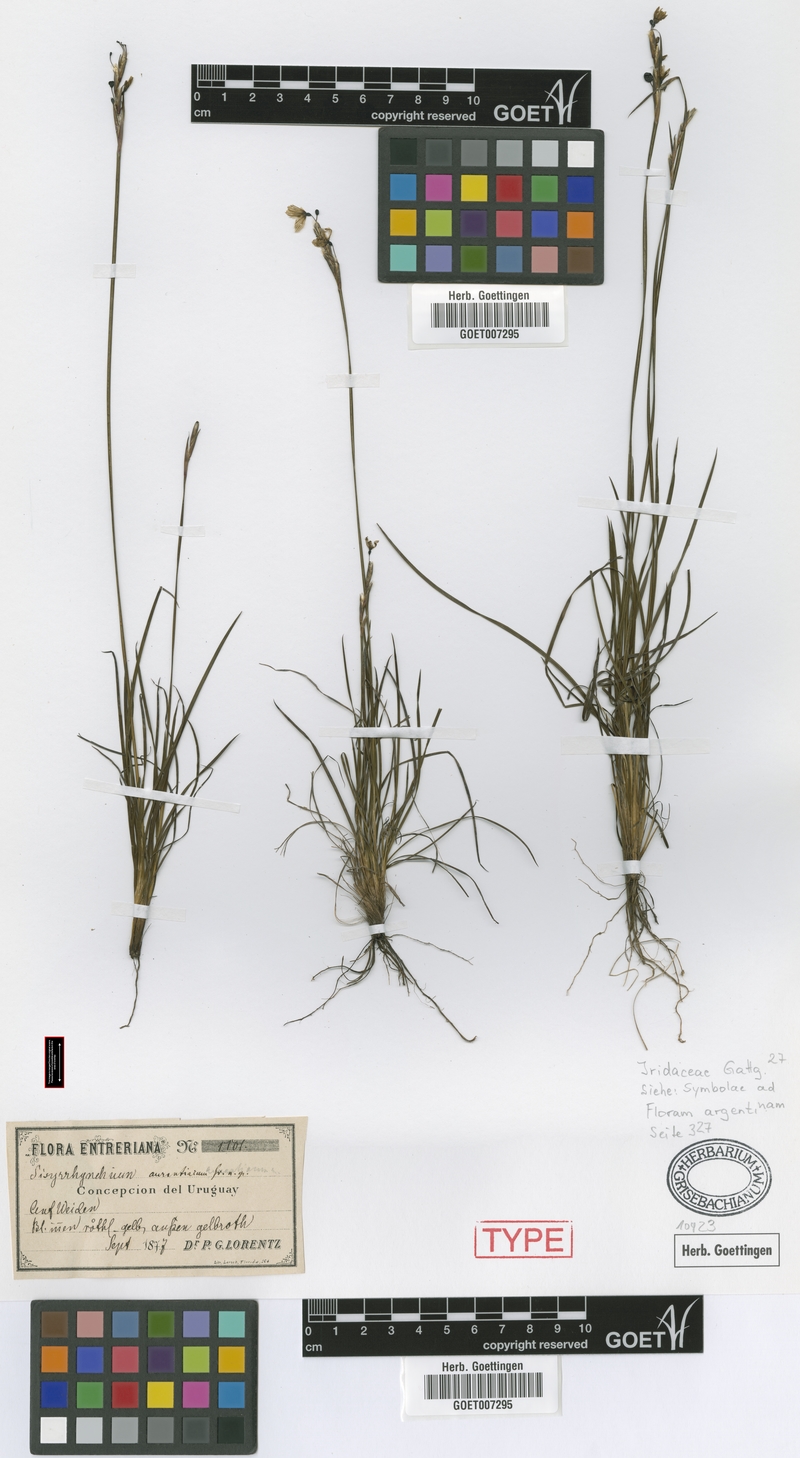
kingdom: Plantae
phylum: Tracheophyta
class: Liliopsida
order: Asparagales
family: Iridaceae
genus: Sisyrinchium
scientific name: Sisyrinchium avenaceum
